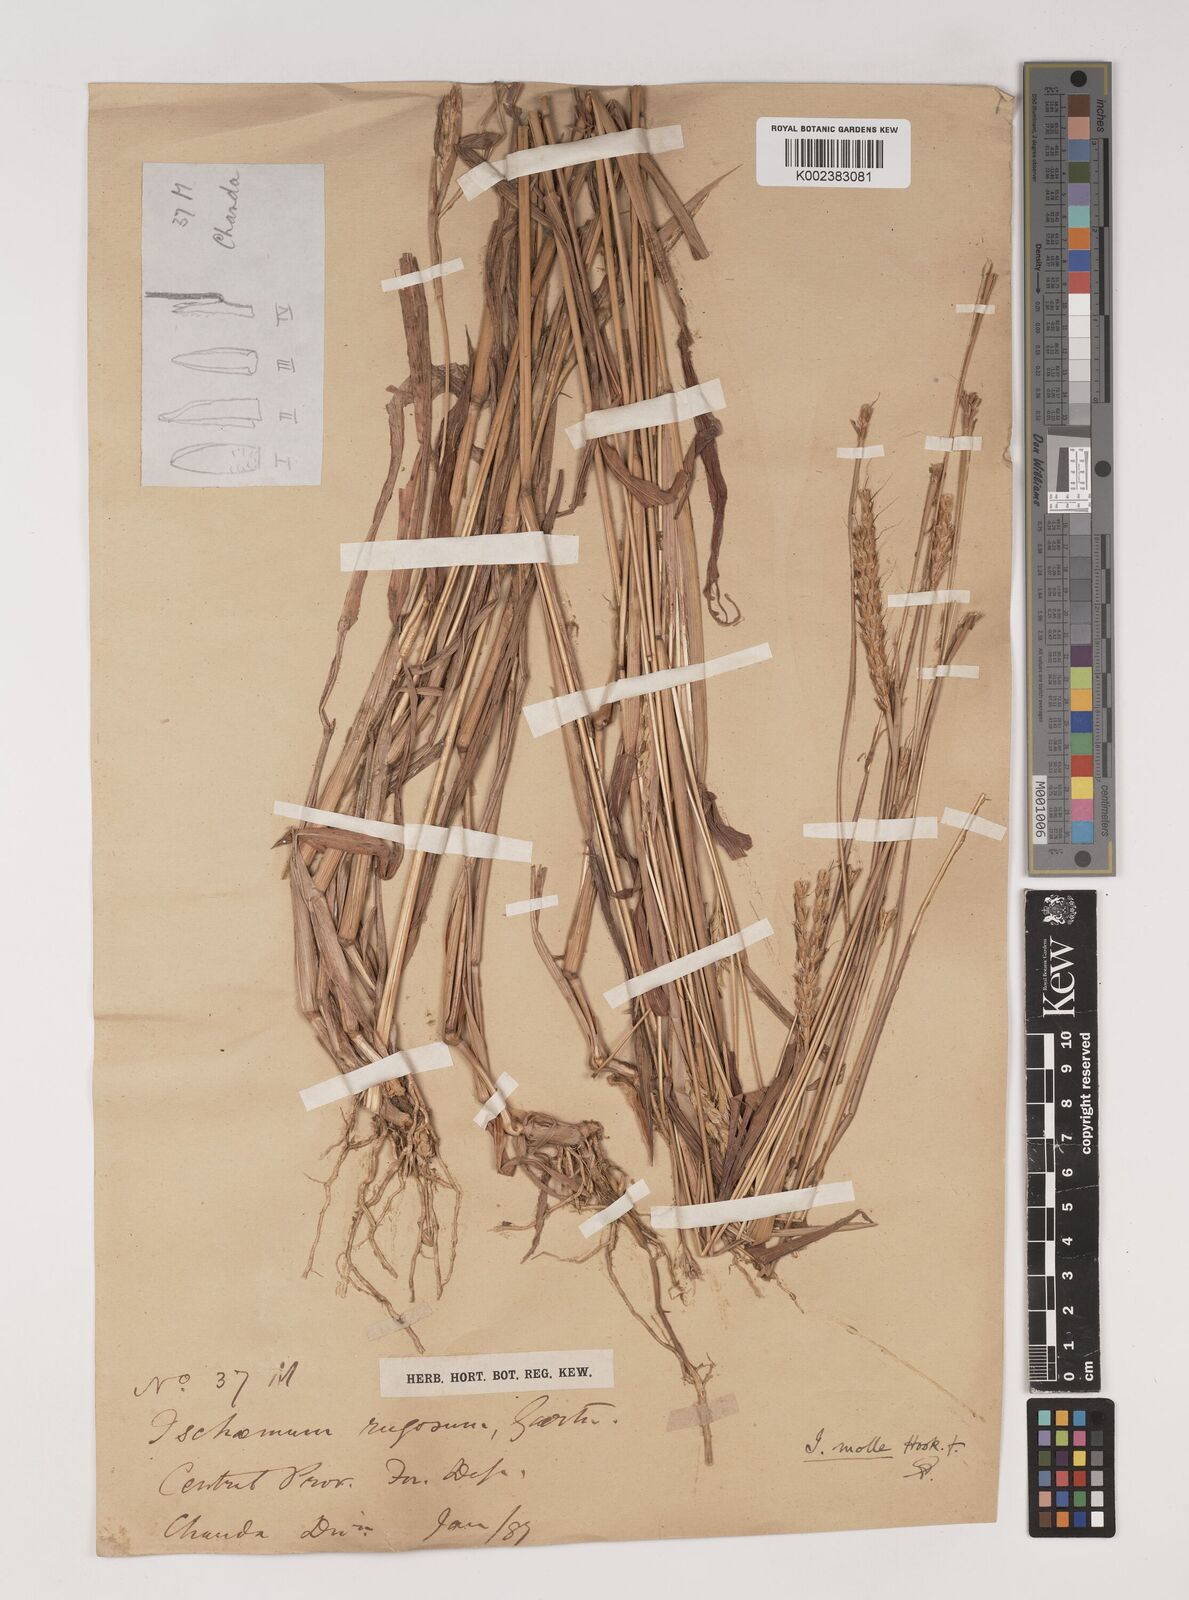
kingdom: Plantae
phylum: Tracheophyta
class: Liliopsida
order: Poales
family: Poaceae
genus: Ischaemum
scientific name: Ischaemum molle
